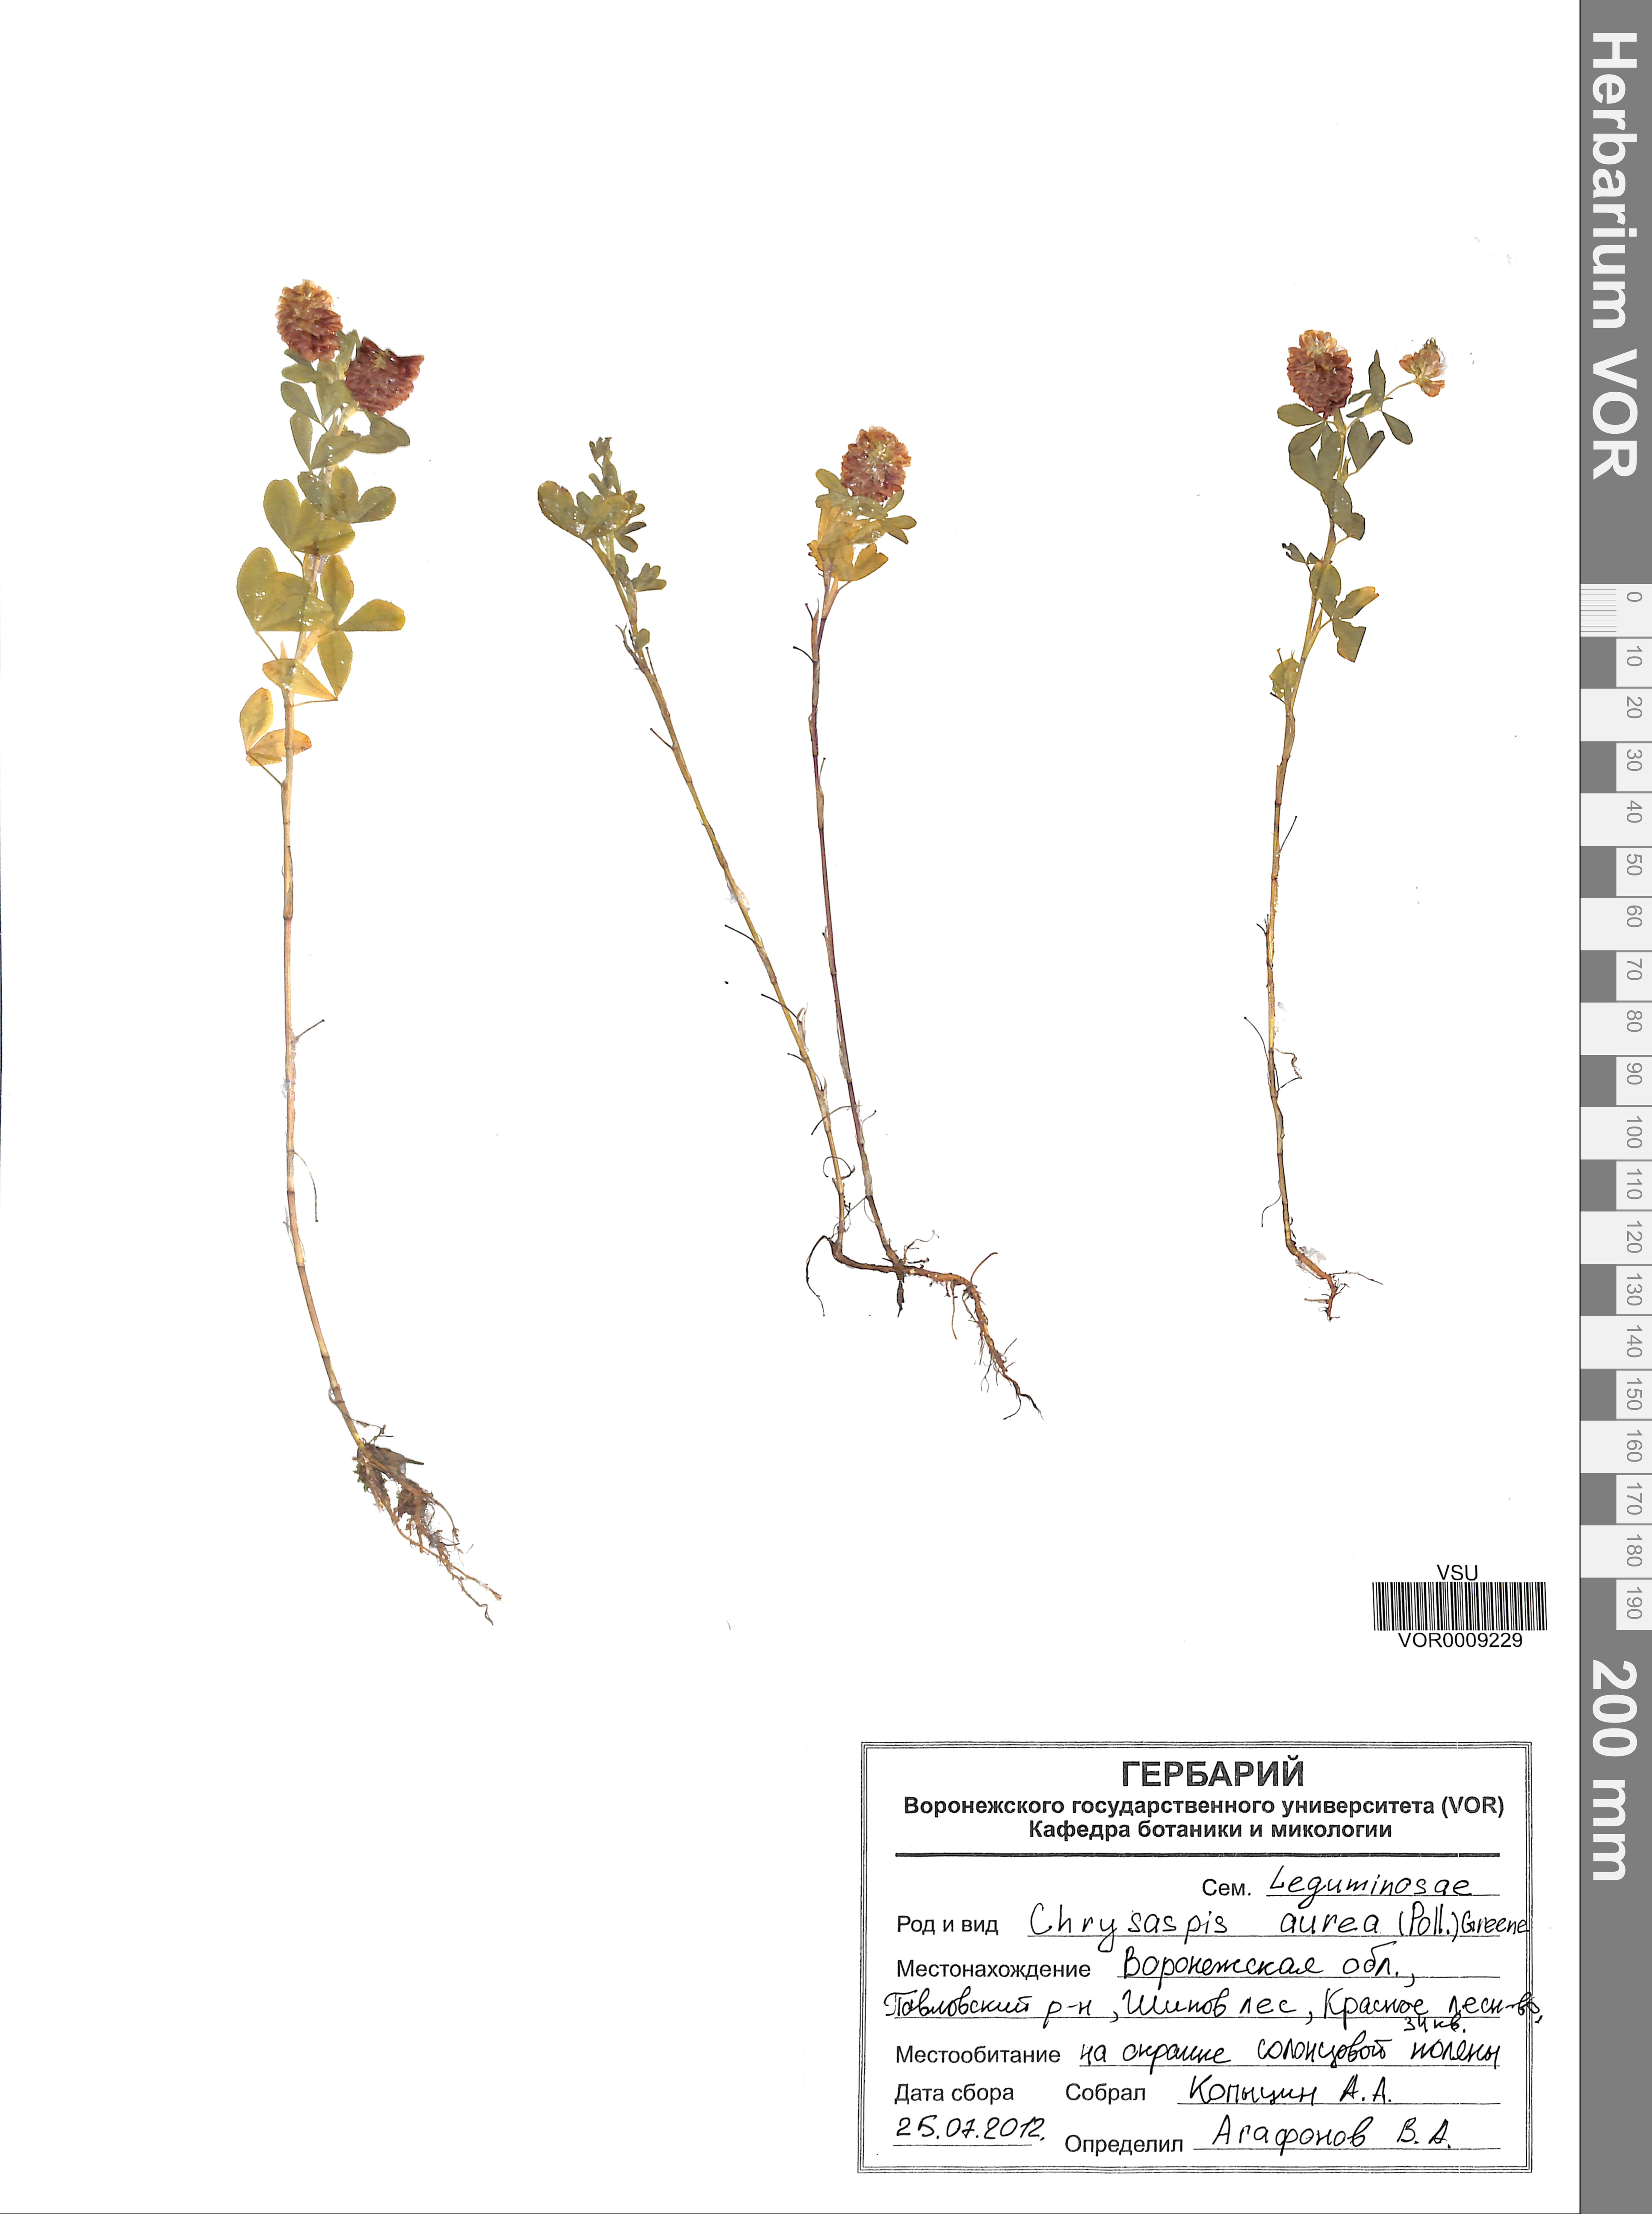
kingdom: Plantae
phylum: Tracheophyta
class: Magnoliopsida
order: Fabales
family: Fabaceae
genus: Trifolium
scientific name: Trifolium aureum
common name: Golden clover
